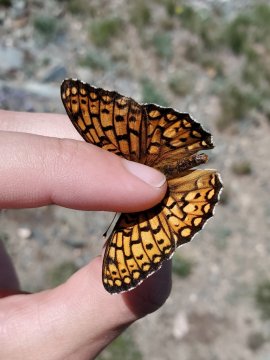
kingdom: Animalia
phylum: Arthropoda
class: Insecta
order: Lepidoptera
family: Nymphalidae
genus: Speyeria
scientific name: Speyeria callippe
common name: Callippe Fritillary
